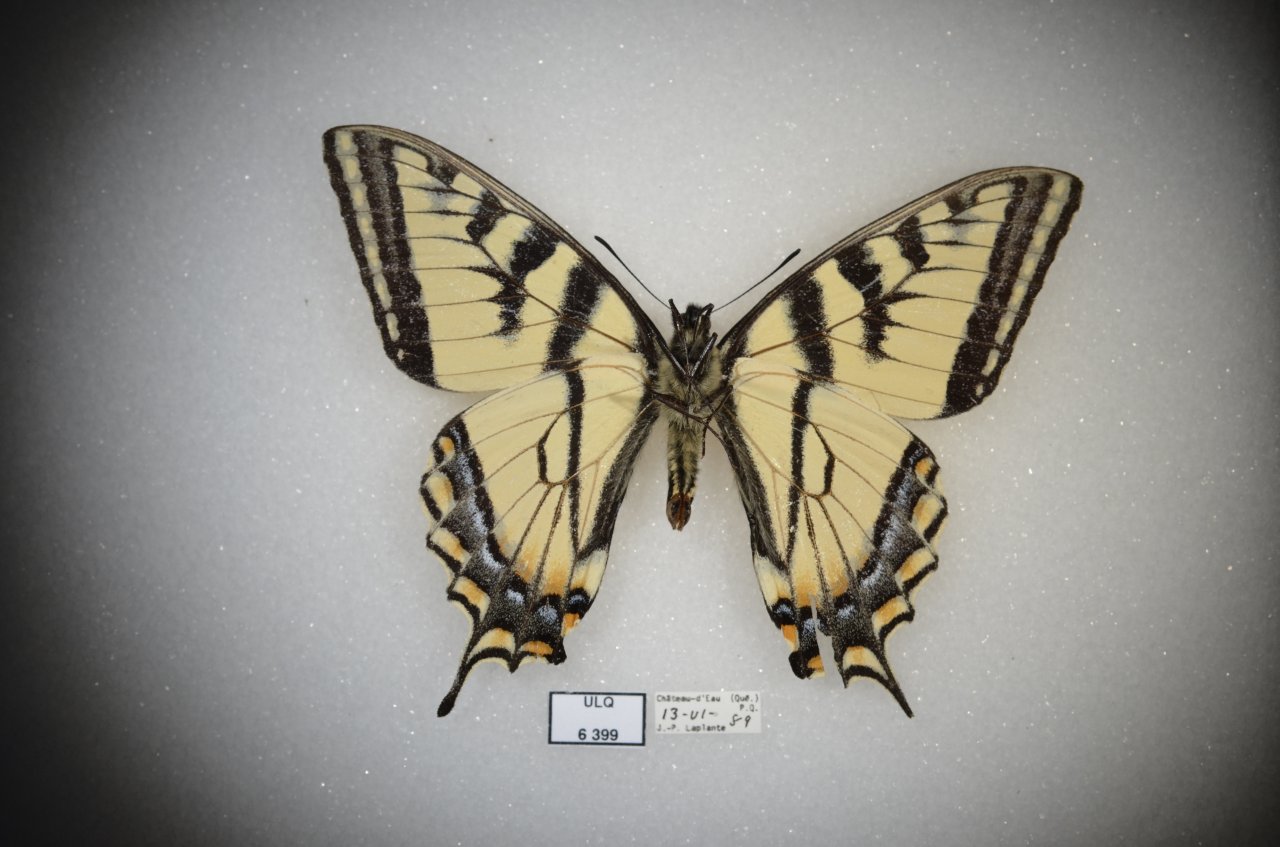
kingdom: Animalia
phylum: Arthropoda
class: Insecta
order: Lepidoptera
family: Papilionidae
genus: Pterourus
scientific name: Pterourus canadensis
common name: Canadian Tiger Swallowtail
